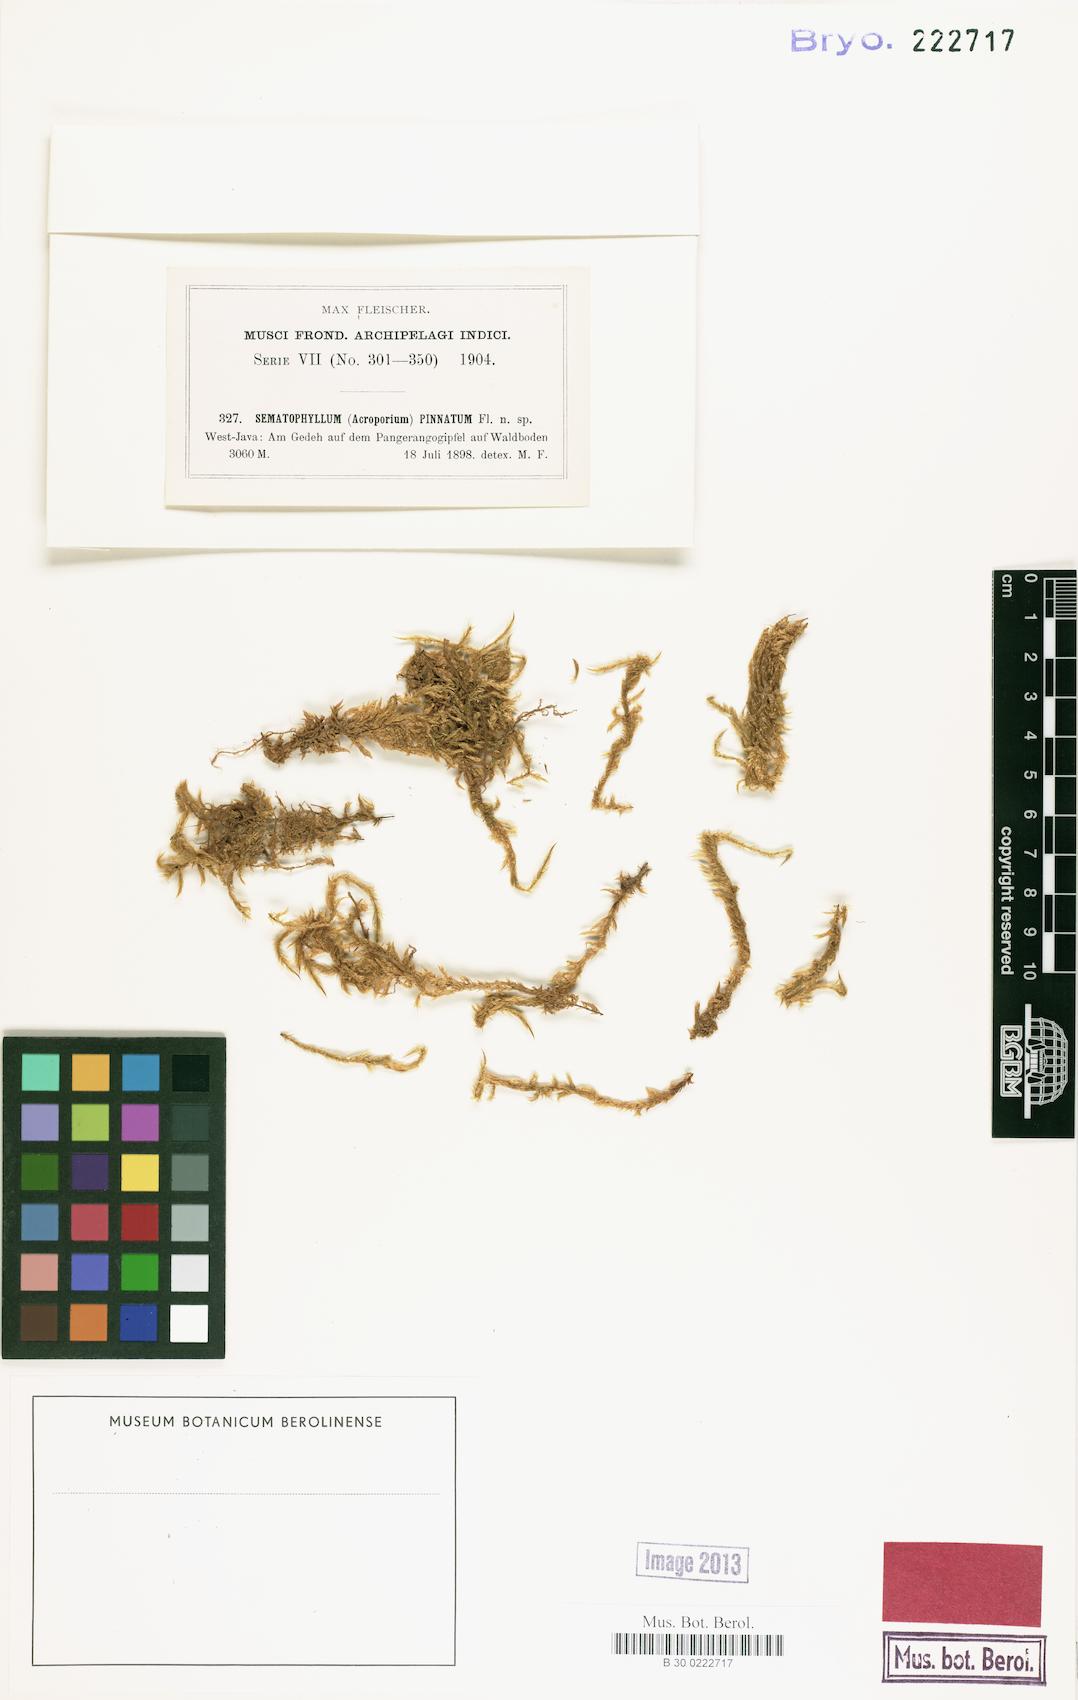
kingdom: Plantae
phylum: Bryophyta
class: Bryopsida
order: Hypnales
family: Sematophyllaceae
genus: Acroporium
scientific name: Acroporium warburgii
